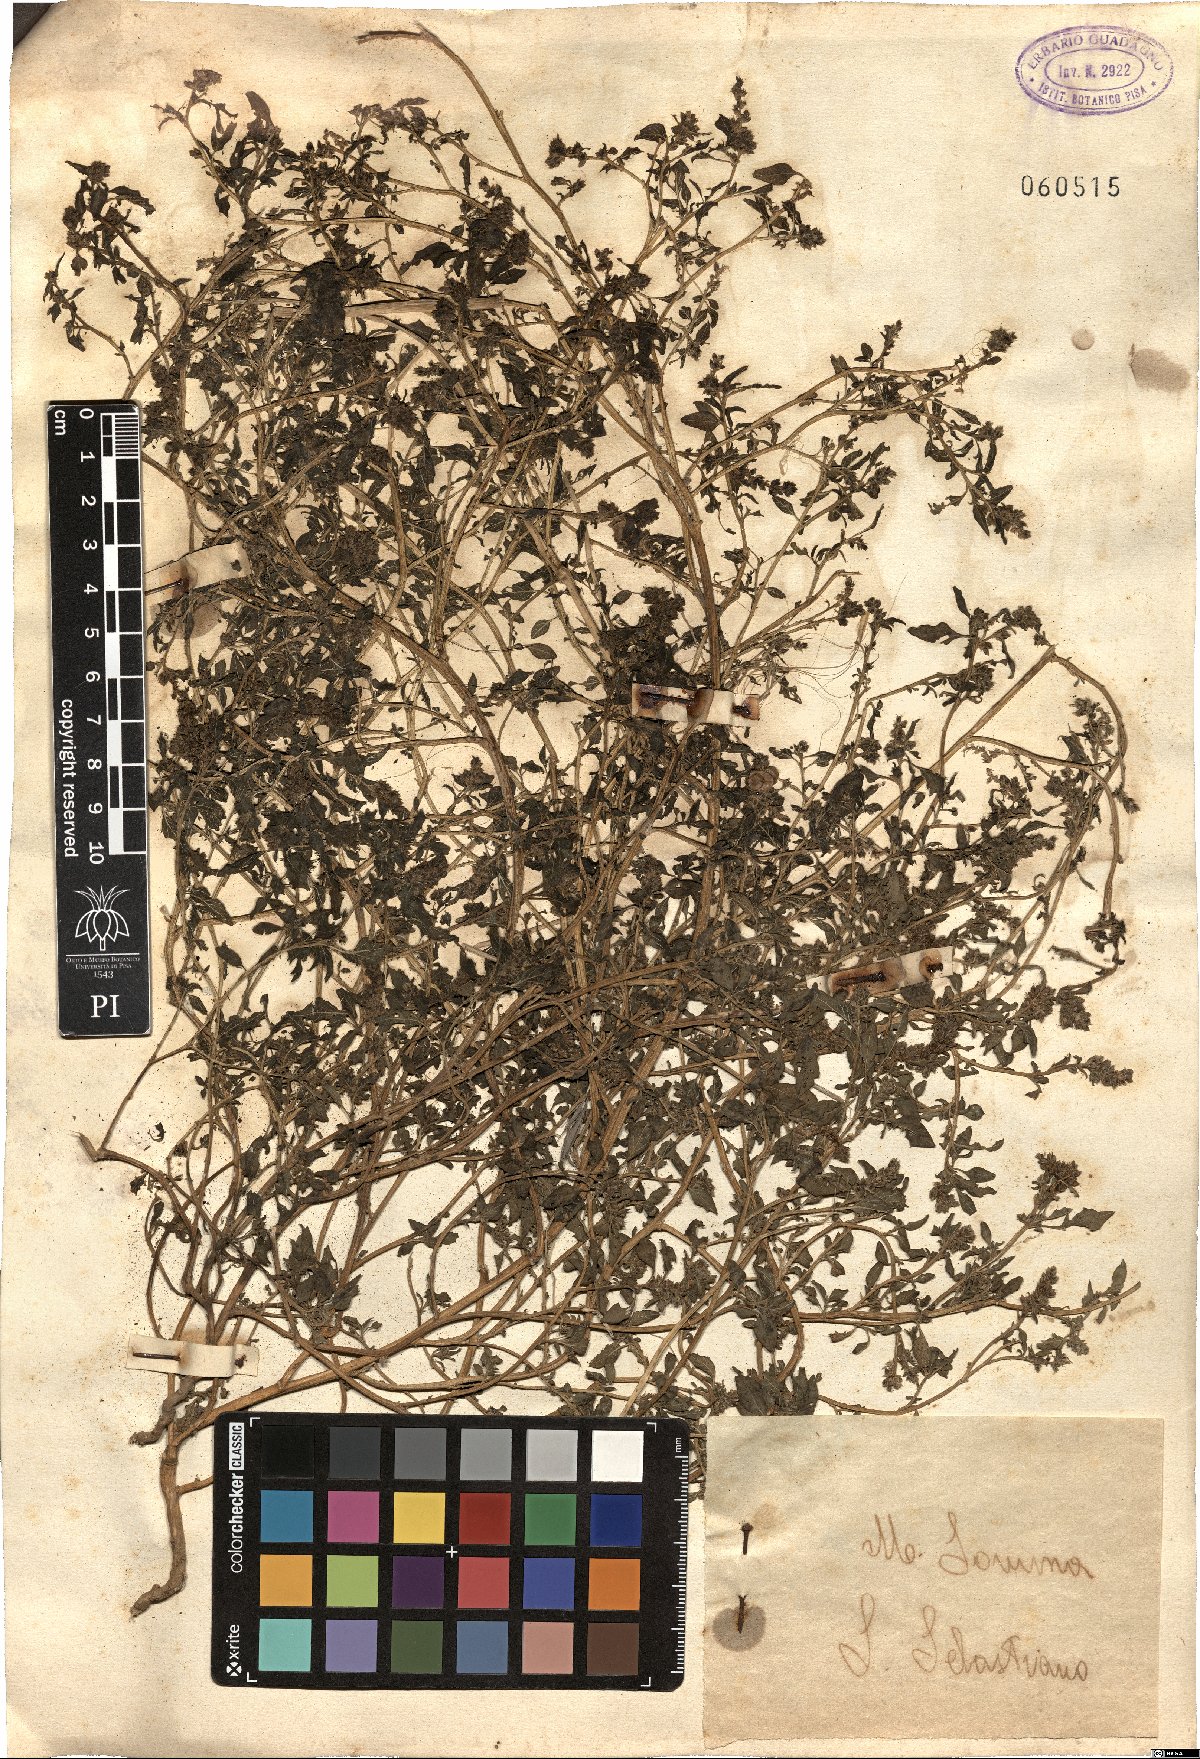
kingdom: Plantae
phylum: Tracheophyta
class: Magnoliopsida
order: Caryophyllales
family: Amaranthaceae
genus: Amaranthus
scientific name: Amaranthus
